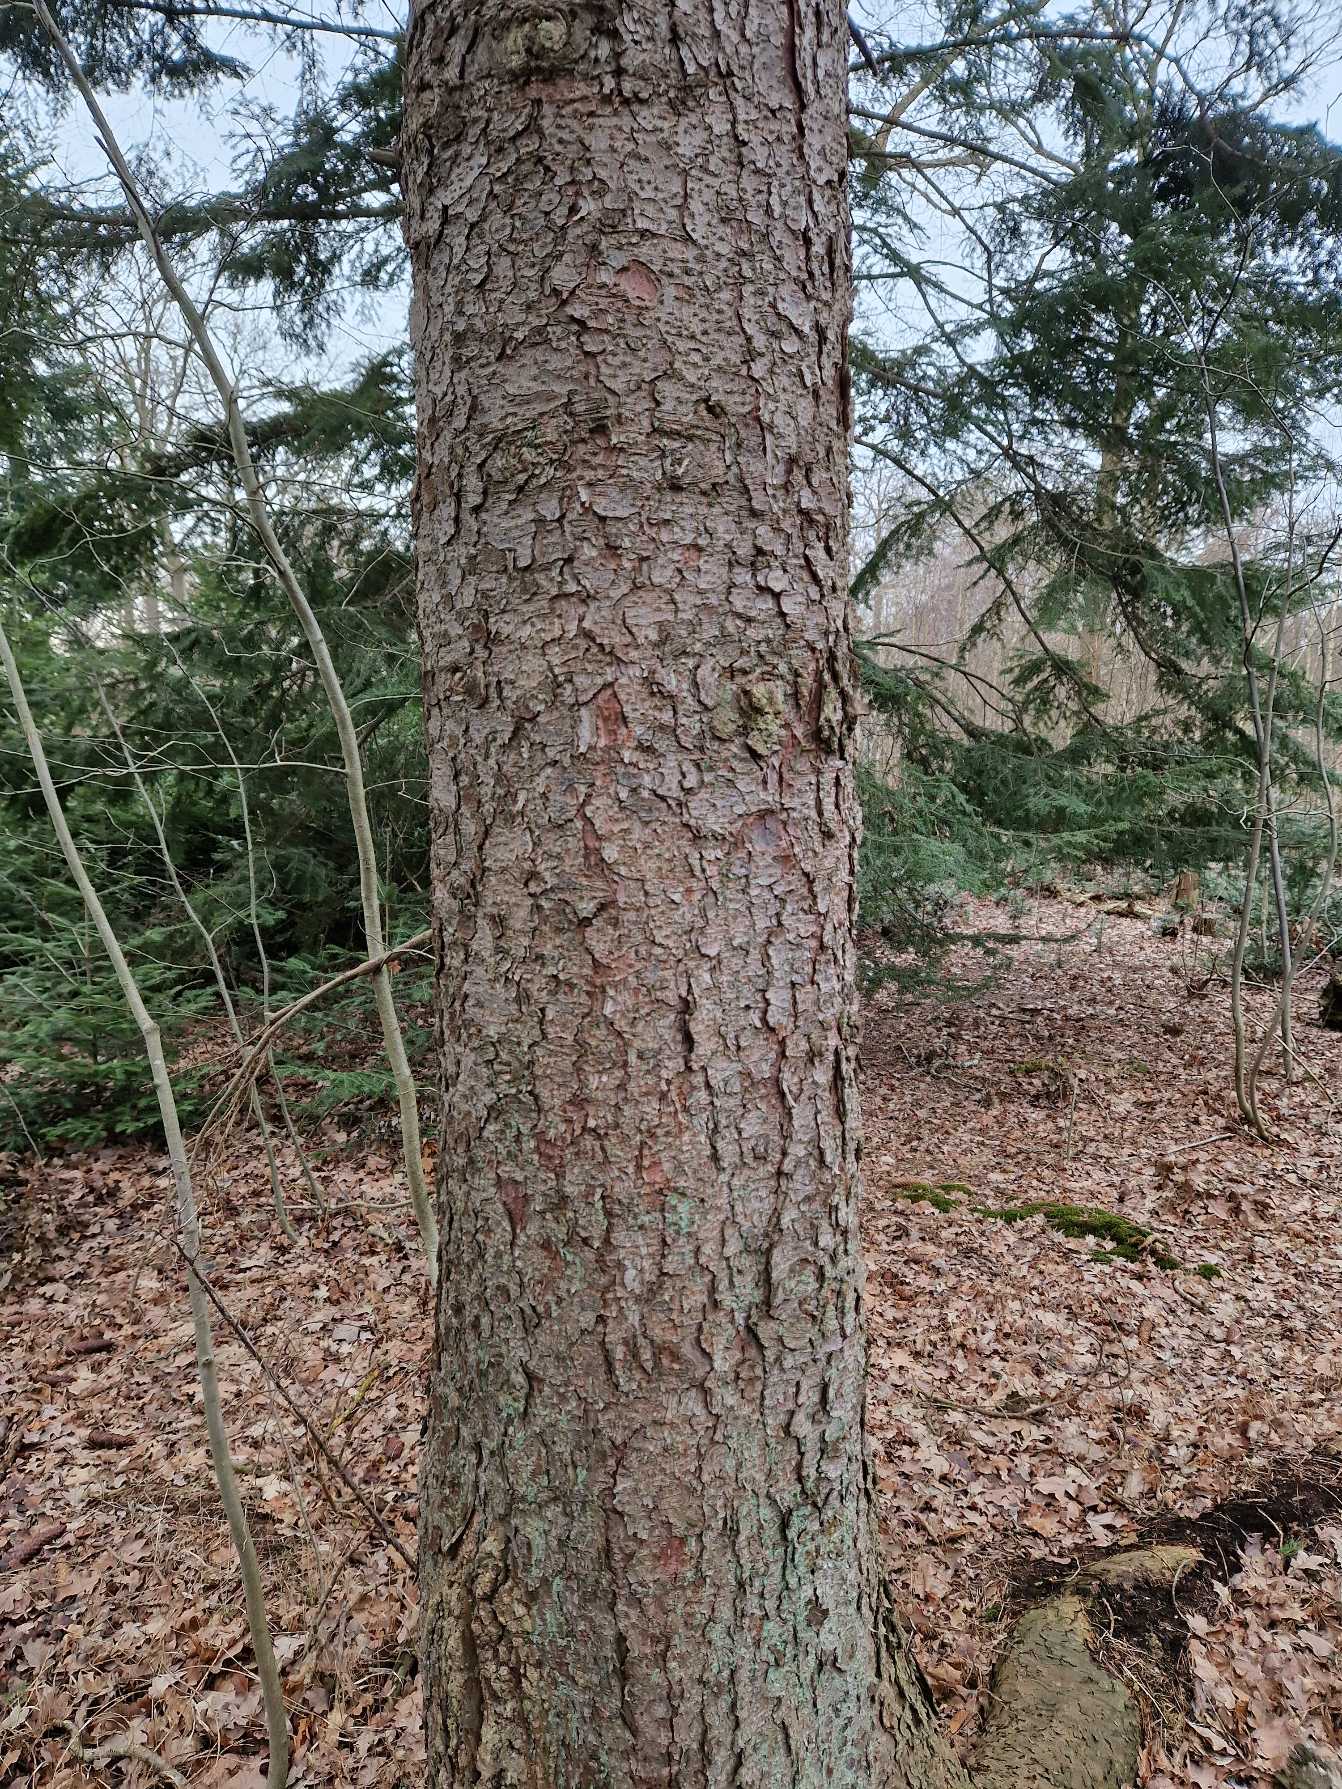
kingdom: Plantae
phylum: Tracheophyta
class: Pinopsida
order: Pinales
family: Pinaceae
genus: Picea
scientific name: Picea abies
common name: Rød-gran
